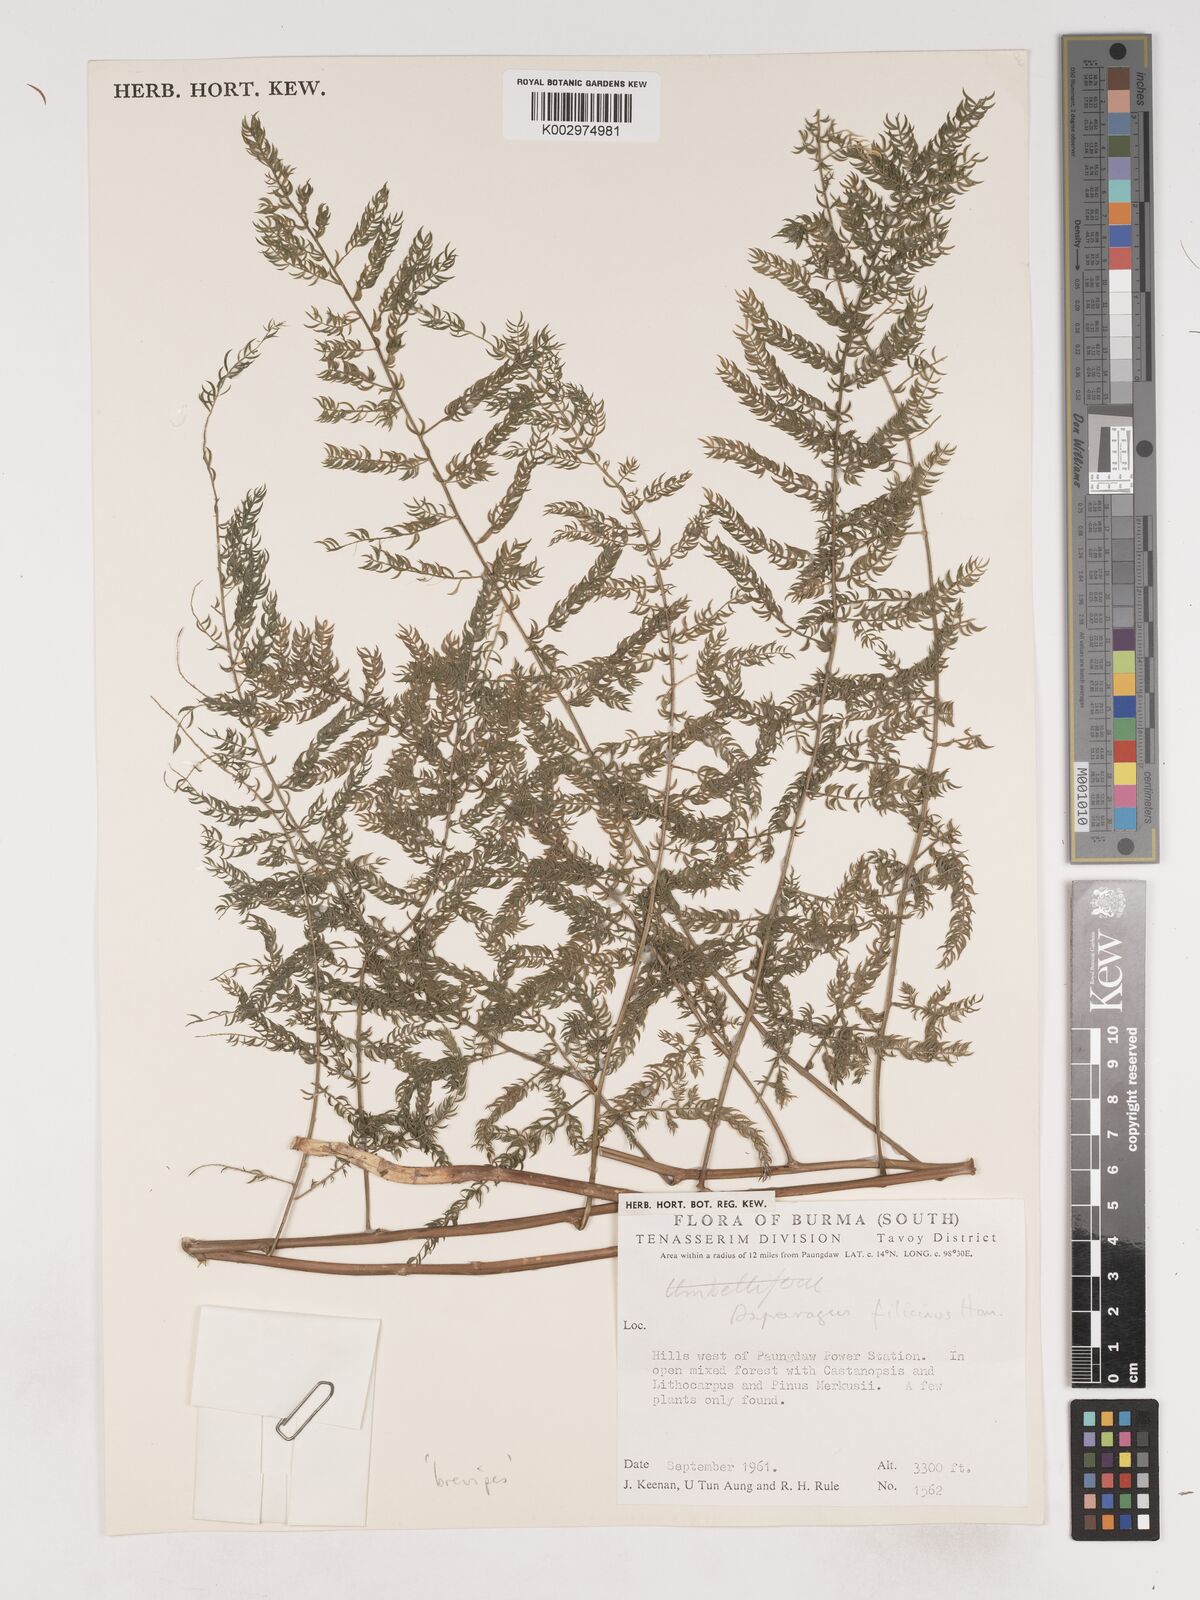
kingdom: Plantae
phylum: Tracheophyta
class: Liliopsida
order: Asparagales
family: Asparagaceae
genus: Asparagus
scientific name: Asparagus filicinus
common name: Fern asparagus
